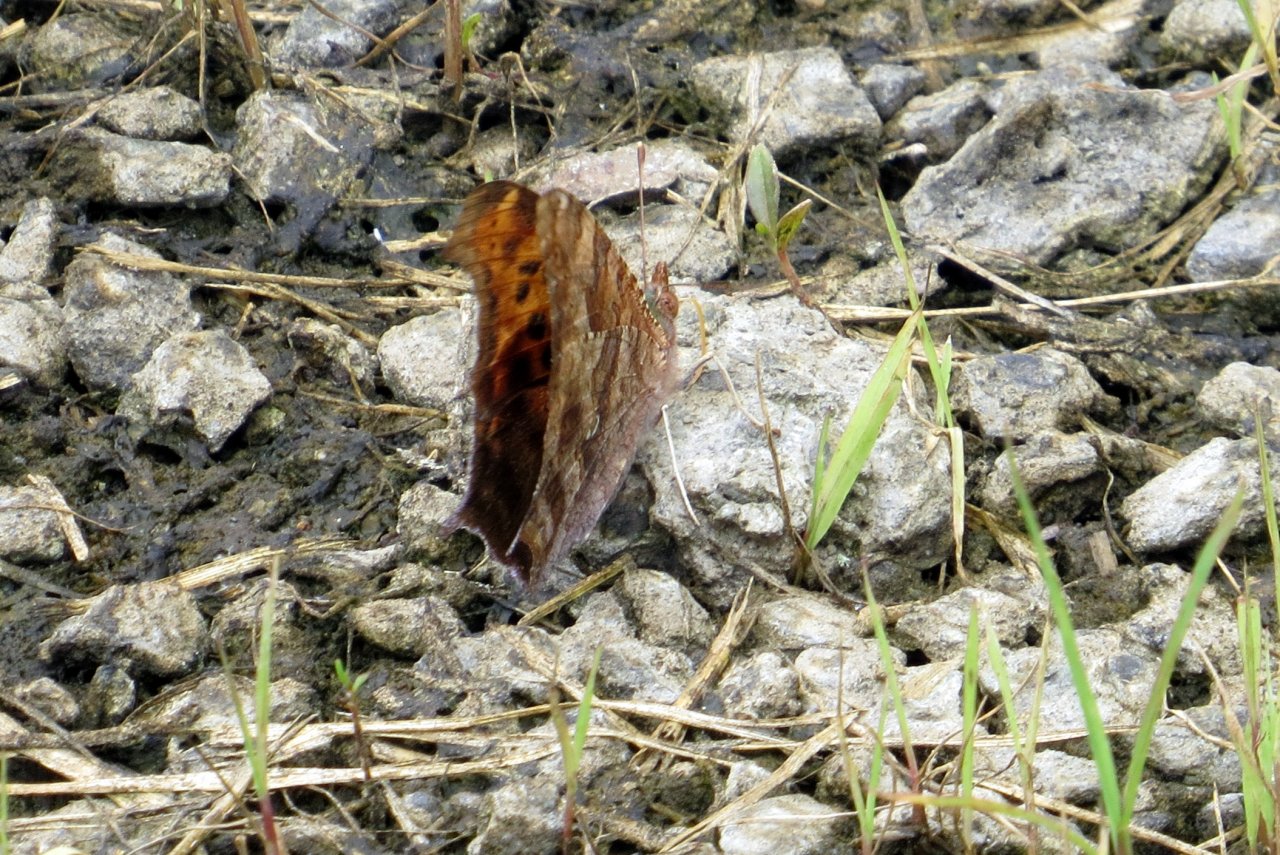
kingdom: Animalia
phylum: Arthropoda
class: Insecta
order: Lepidoptera
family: Nymphalidae
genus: Polygonia
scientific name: Polygonia interrogationis
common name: Question Mark
